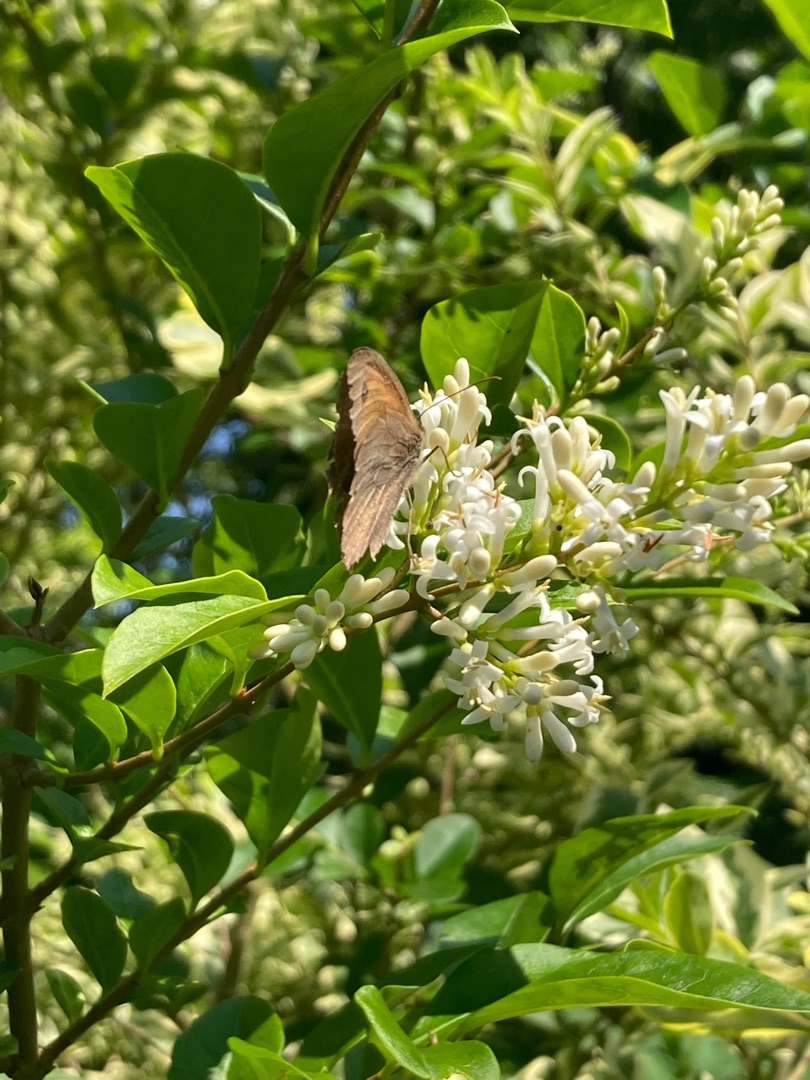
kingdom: Animalia
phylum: Arthropoda
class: Insecta
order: Lepidoptera
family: Nymphalidae
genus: Maniola
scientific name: Maniola jurtina
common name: Græsrandøje
